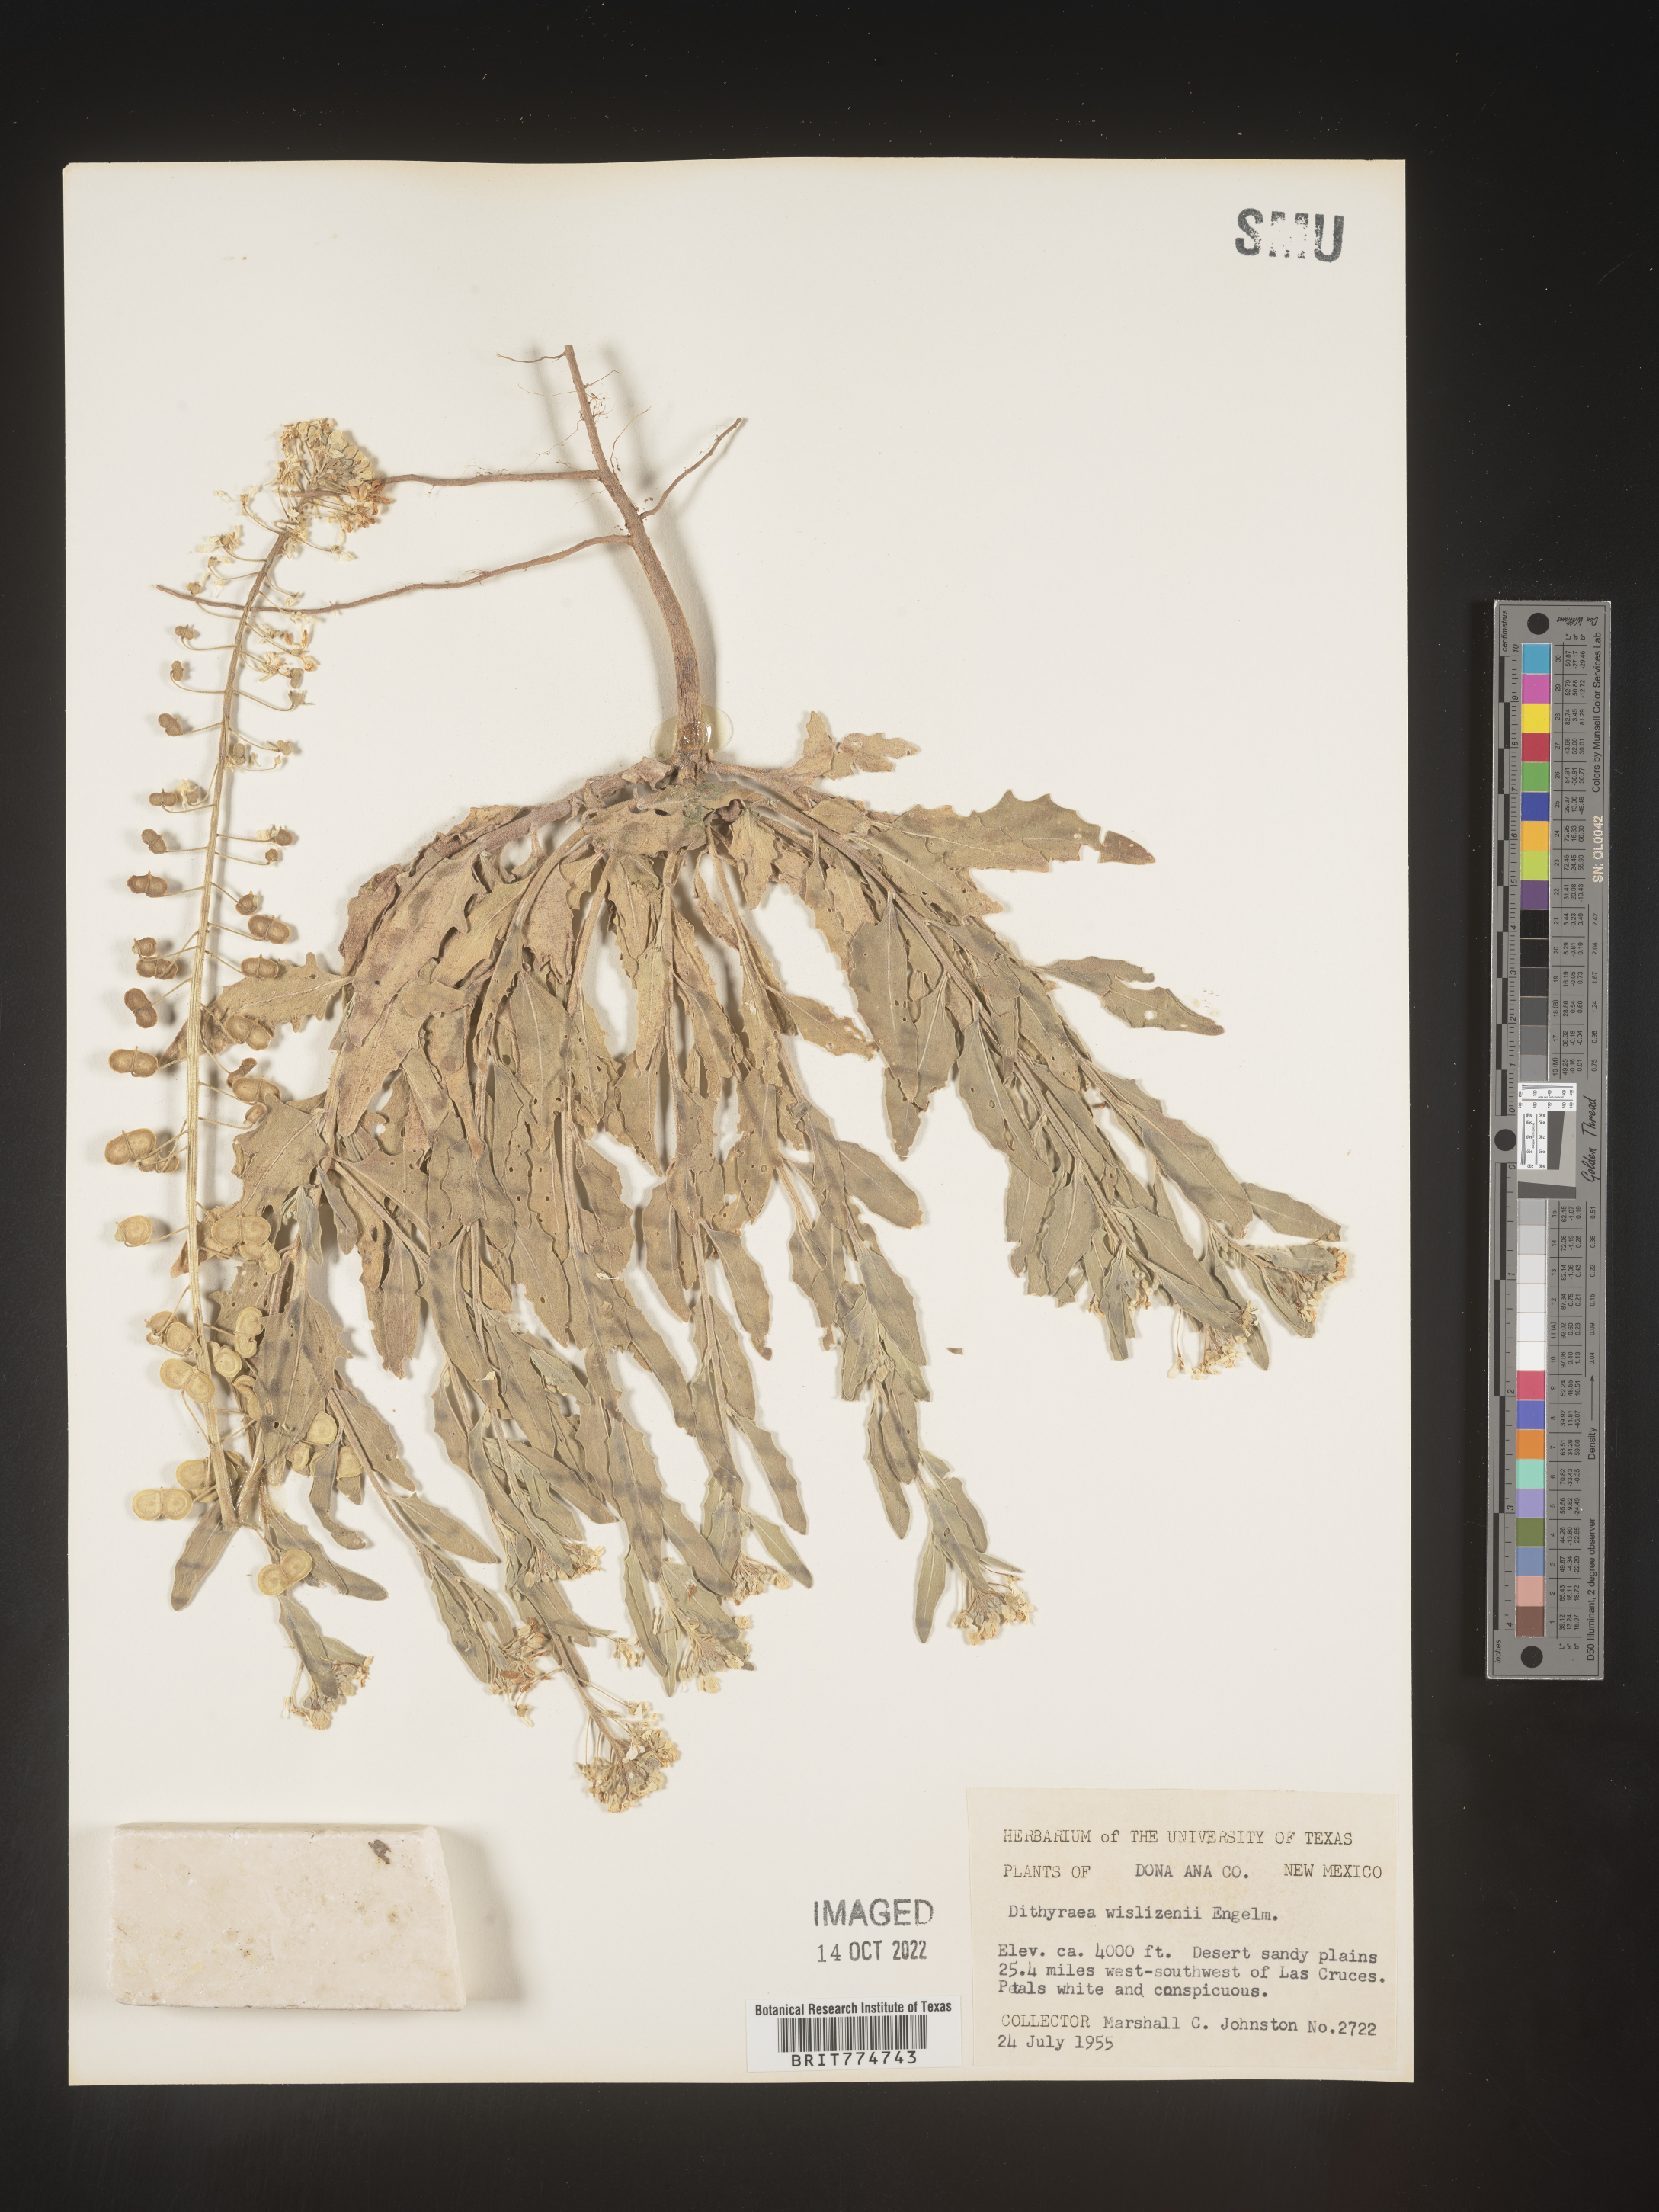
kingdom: Plantae
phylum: Tracheophyta
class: Magnoliopsida
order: Brassicales
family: Brassicaceae
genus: Dimorphocarpa
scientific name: Dimorphocarpa wislizenii
